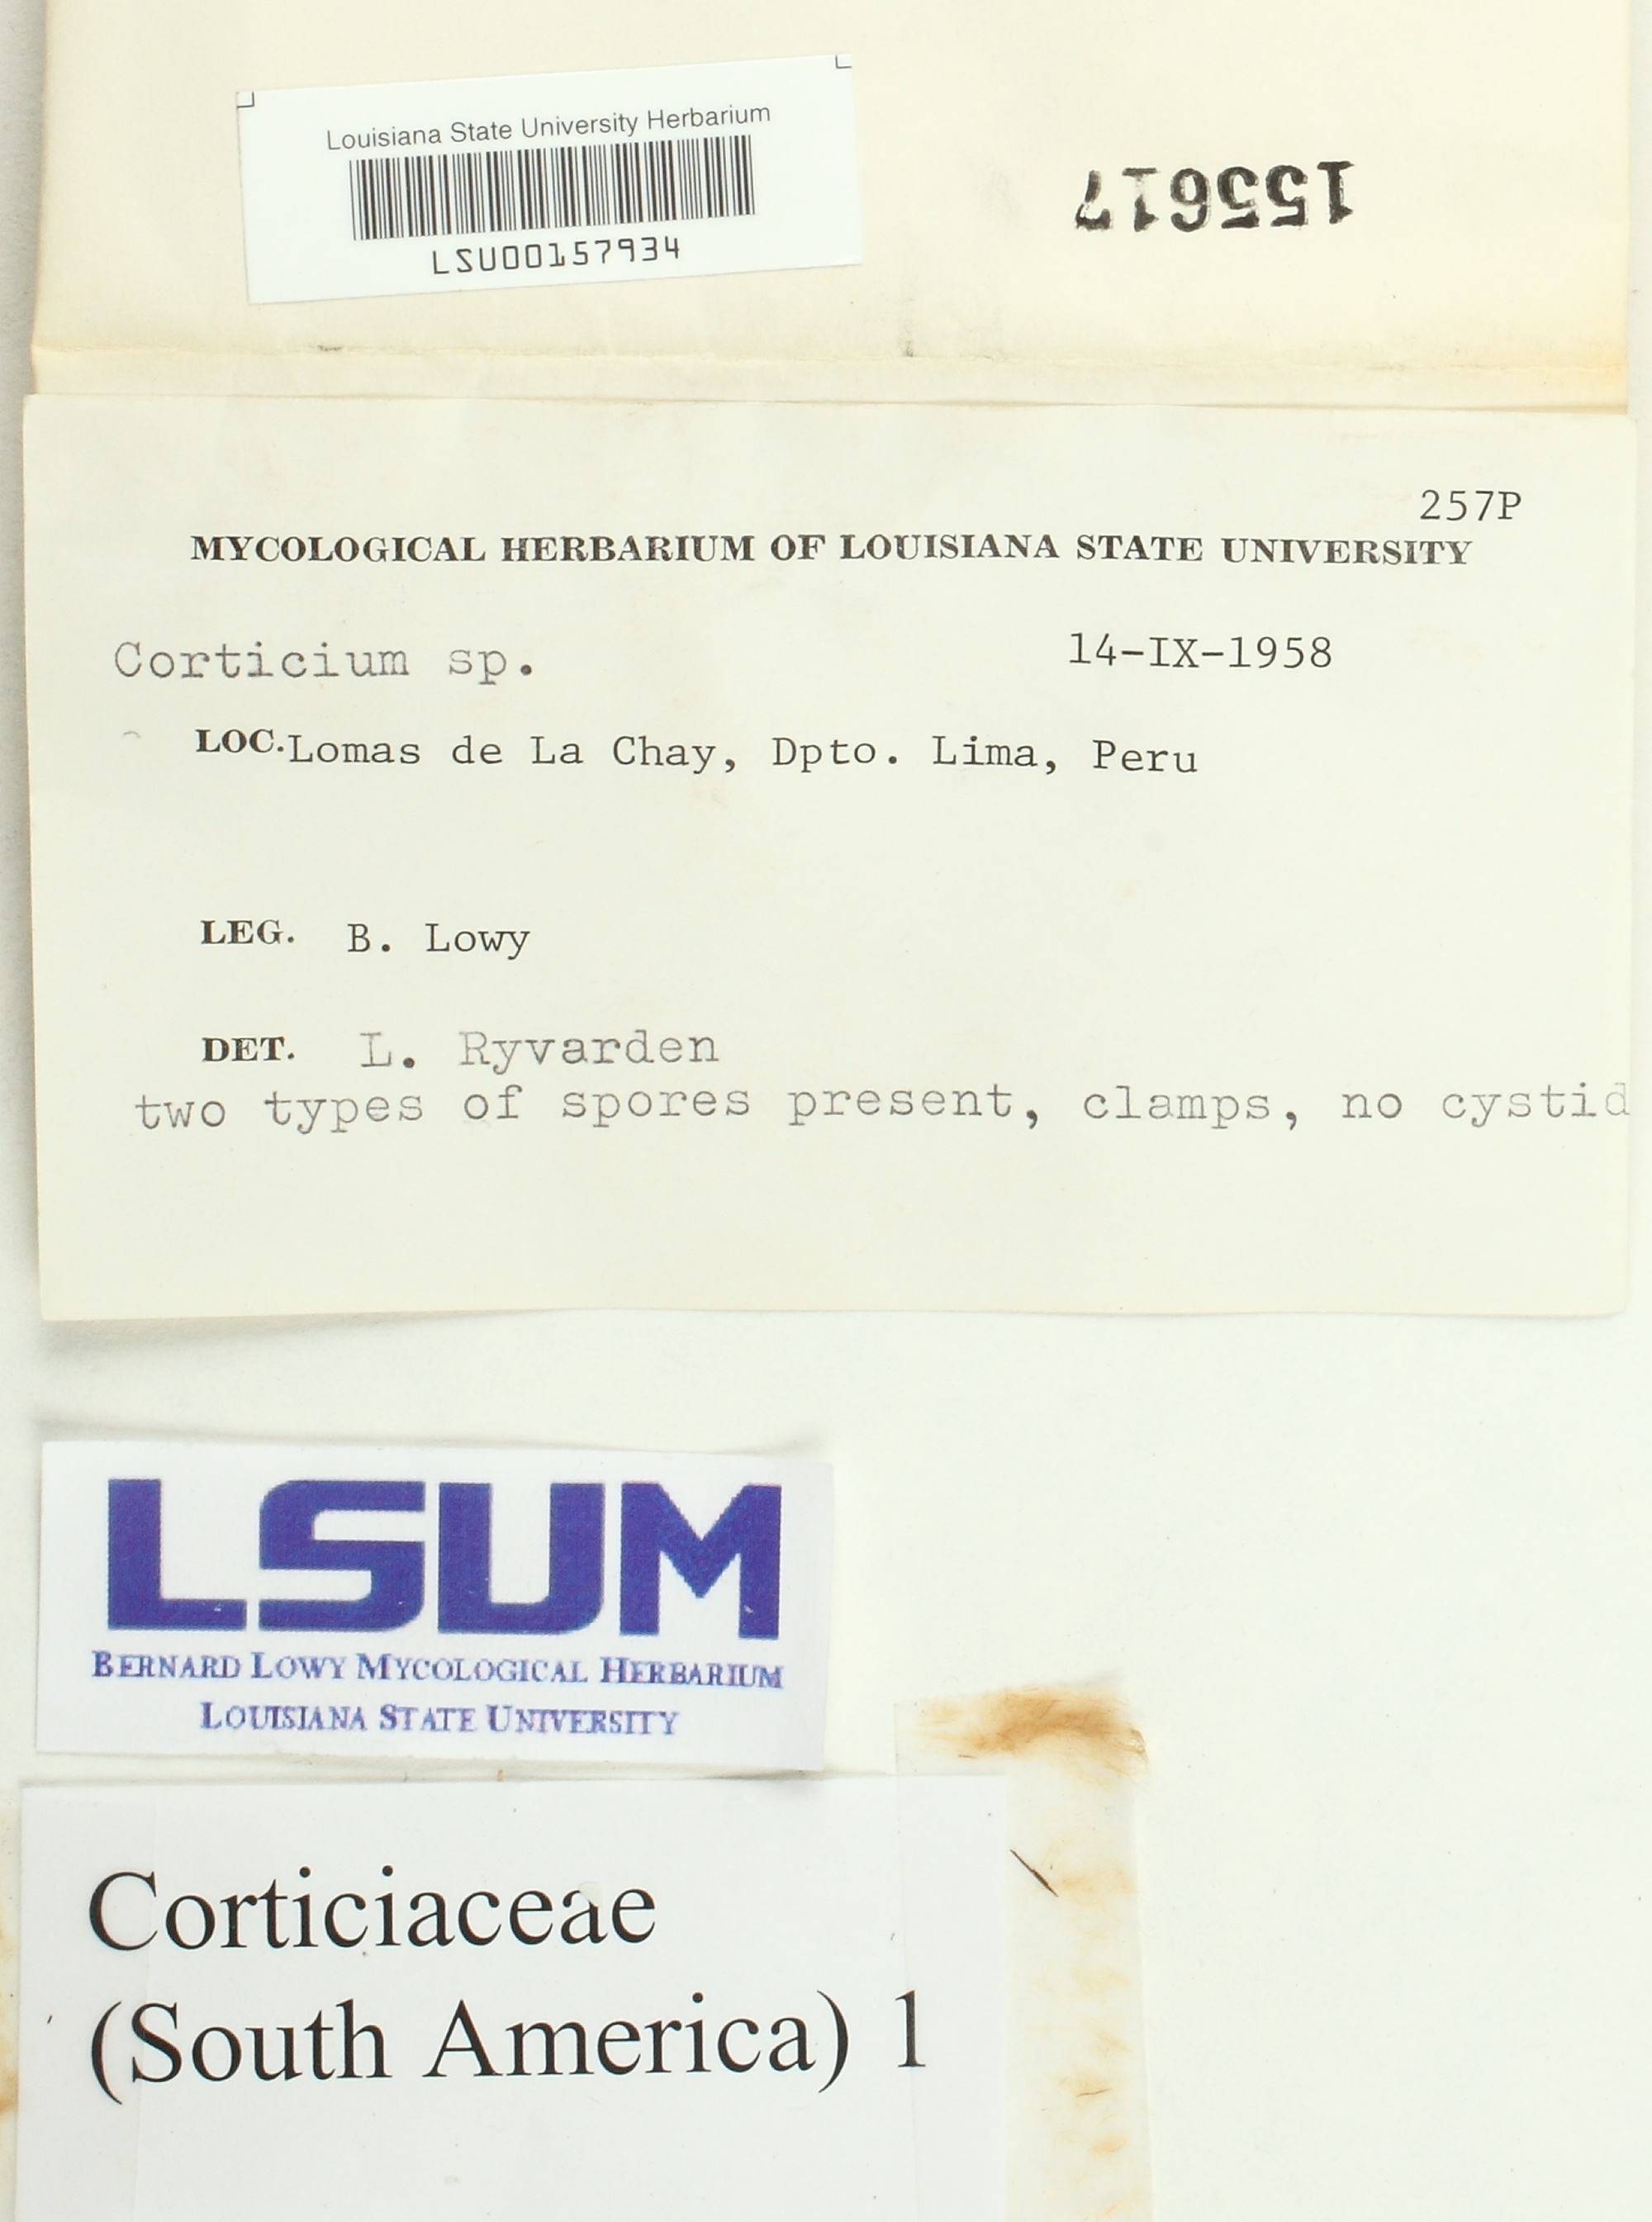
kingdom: Fungi
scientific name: Fungi
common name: Fungi
